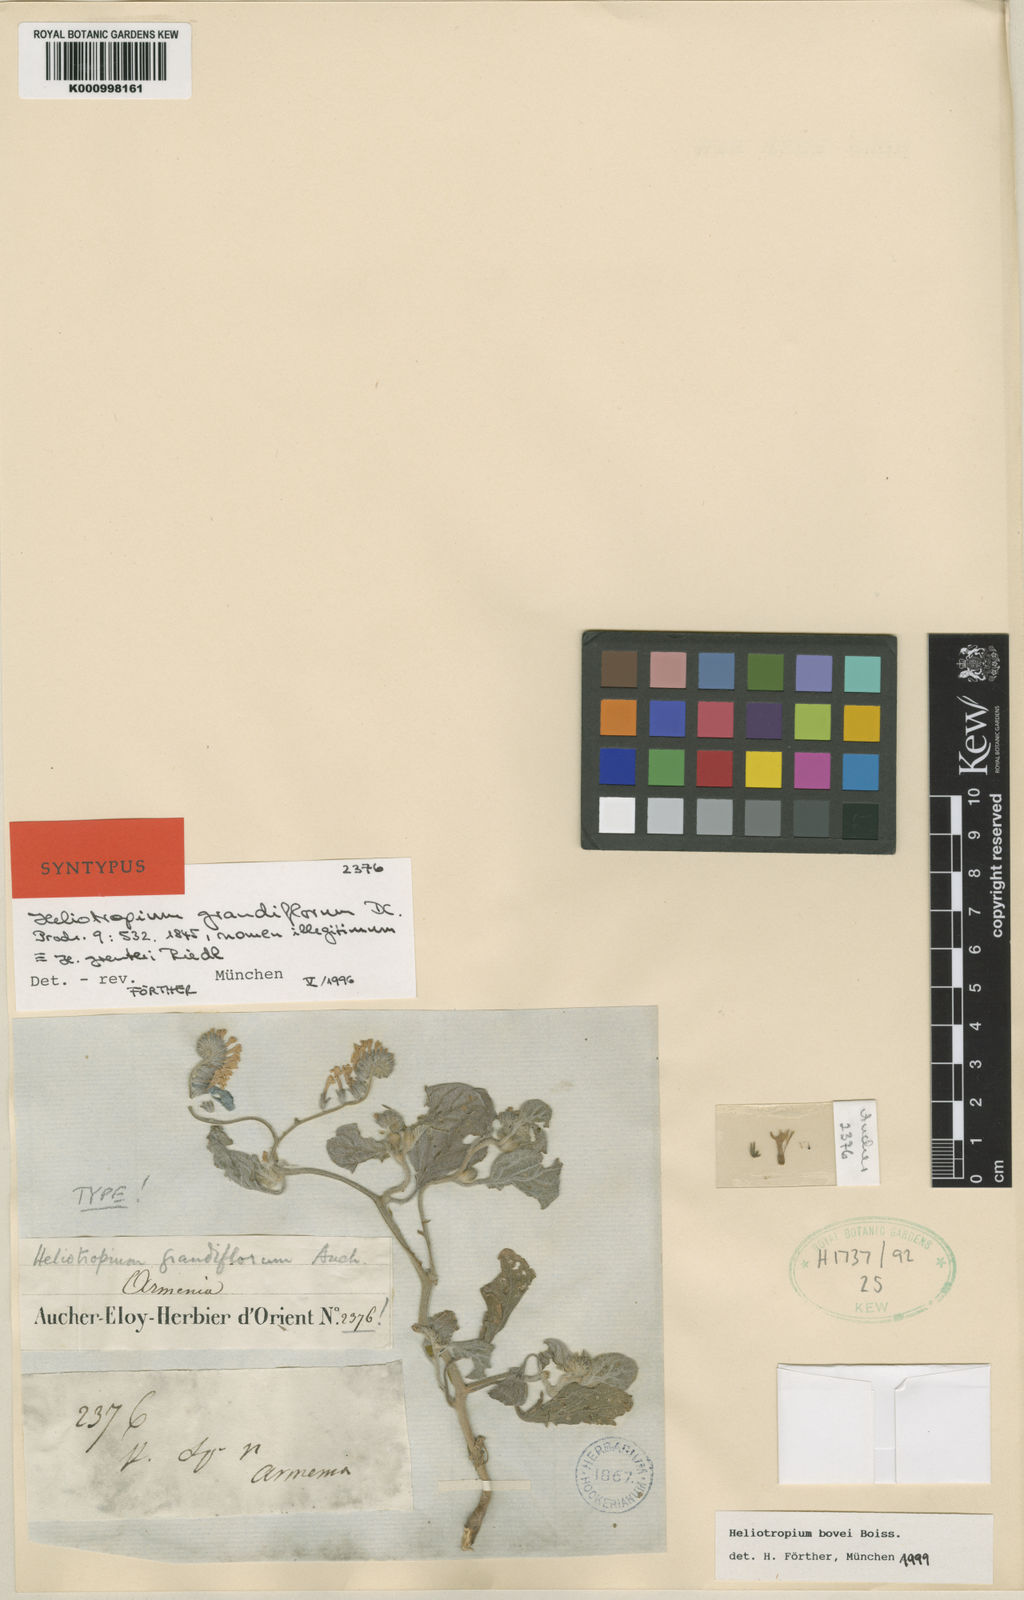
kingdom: Plantae
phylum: Tracheophyta
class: Magnoliopsida
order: Boraginales
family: Heliotropiaceae
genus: Heliotropium
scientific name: Heliotropium greuteri
